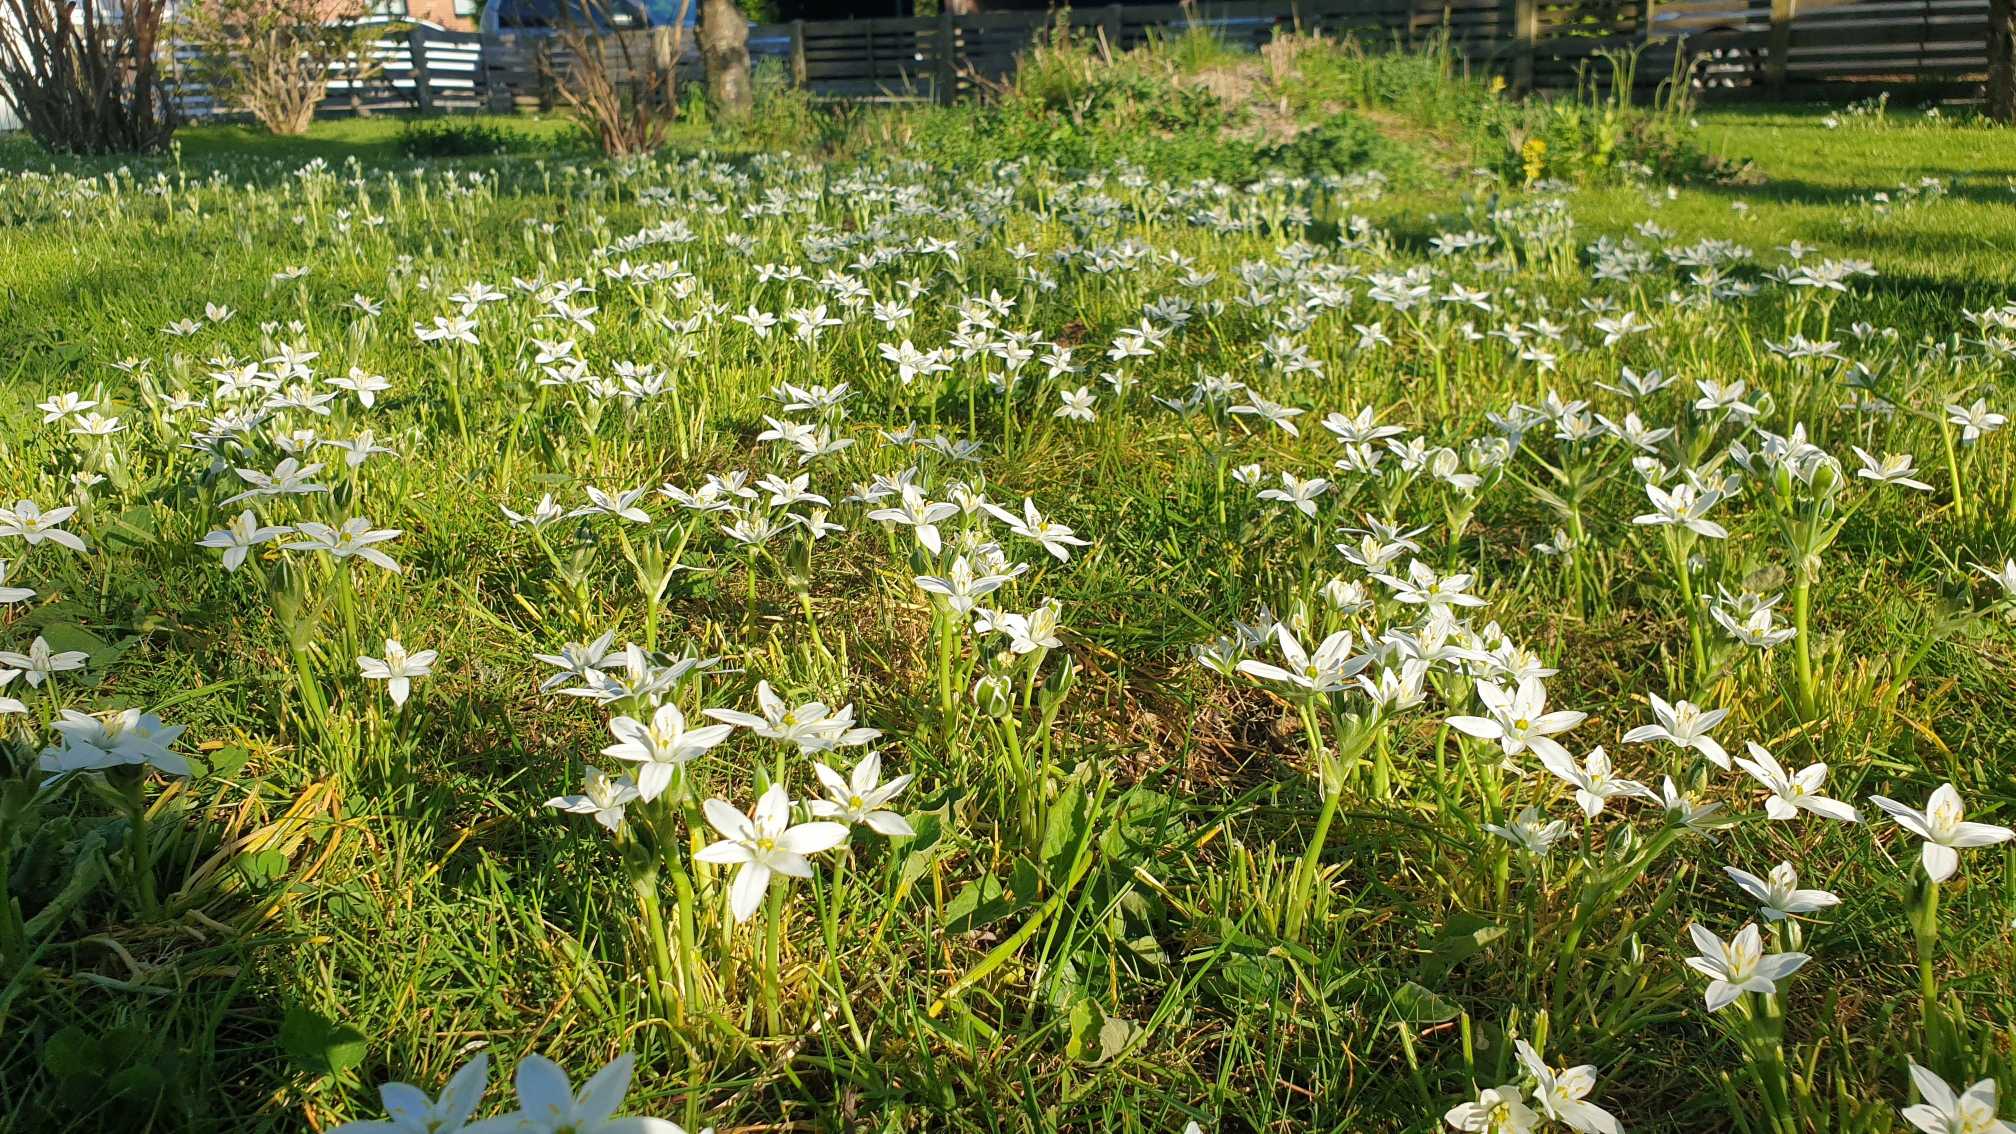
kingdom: Plantae
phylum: Tracheophyta
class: Liliopsida
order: Asparagales
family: Asparagaceae
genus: Ornithogalum
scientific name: Ornithogalum umbellatum
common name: Kost-fuglemælk
